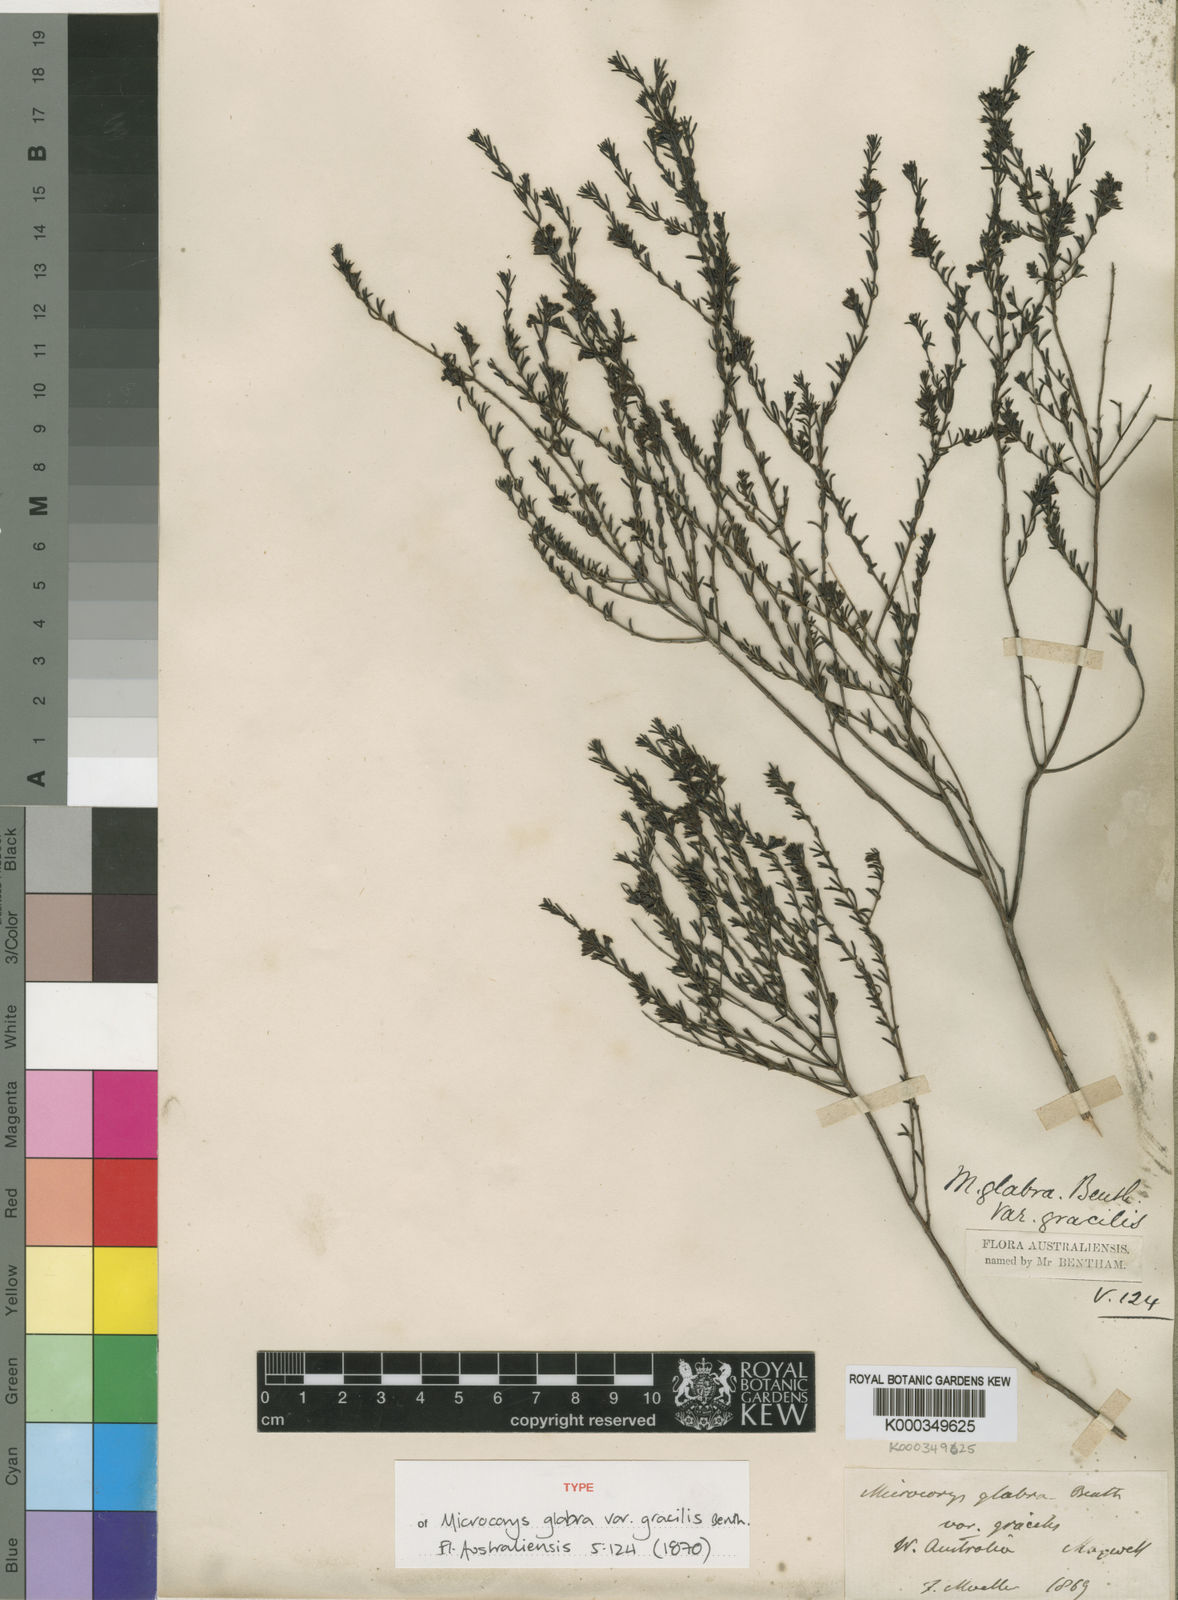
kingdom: Plantae
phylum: Tracheophyta
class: Magnoliopsida
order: Lamiales
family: Lamiaceae
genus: Microcorys
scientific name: Microcorys glabra
